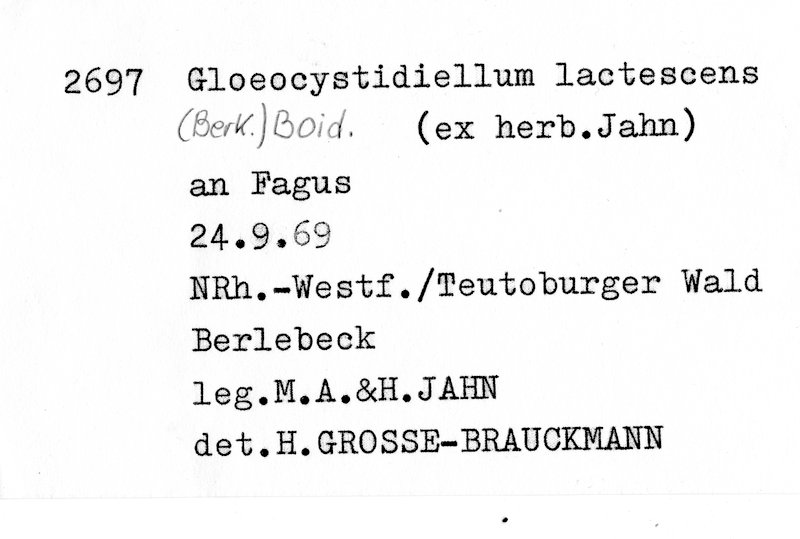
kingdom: Plantae
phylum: Tracheophyta
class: Magnoliopsida
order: Fagales
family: Fagaceae
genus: Fagus
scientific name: Fagus sylvatica
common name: Beech
